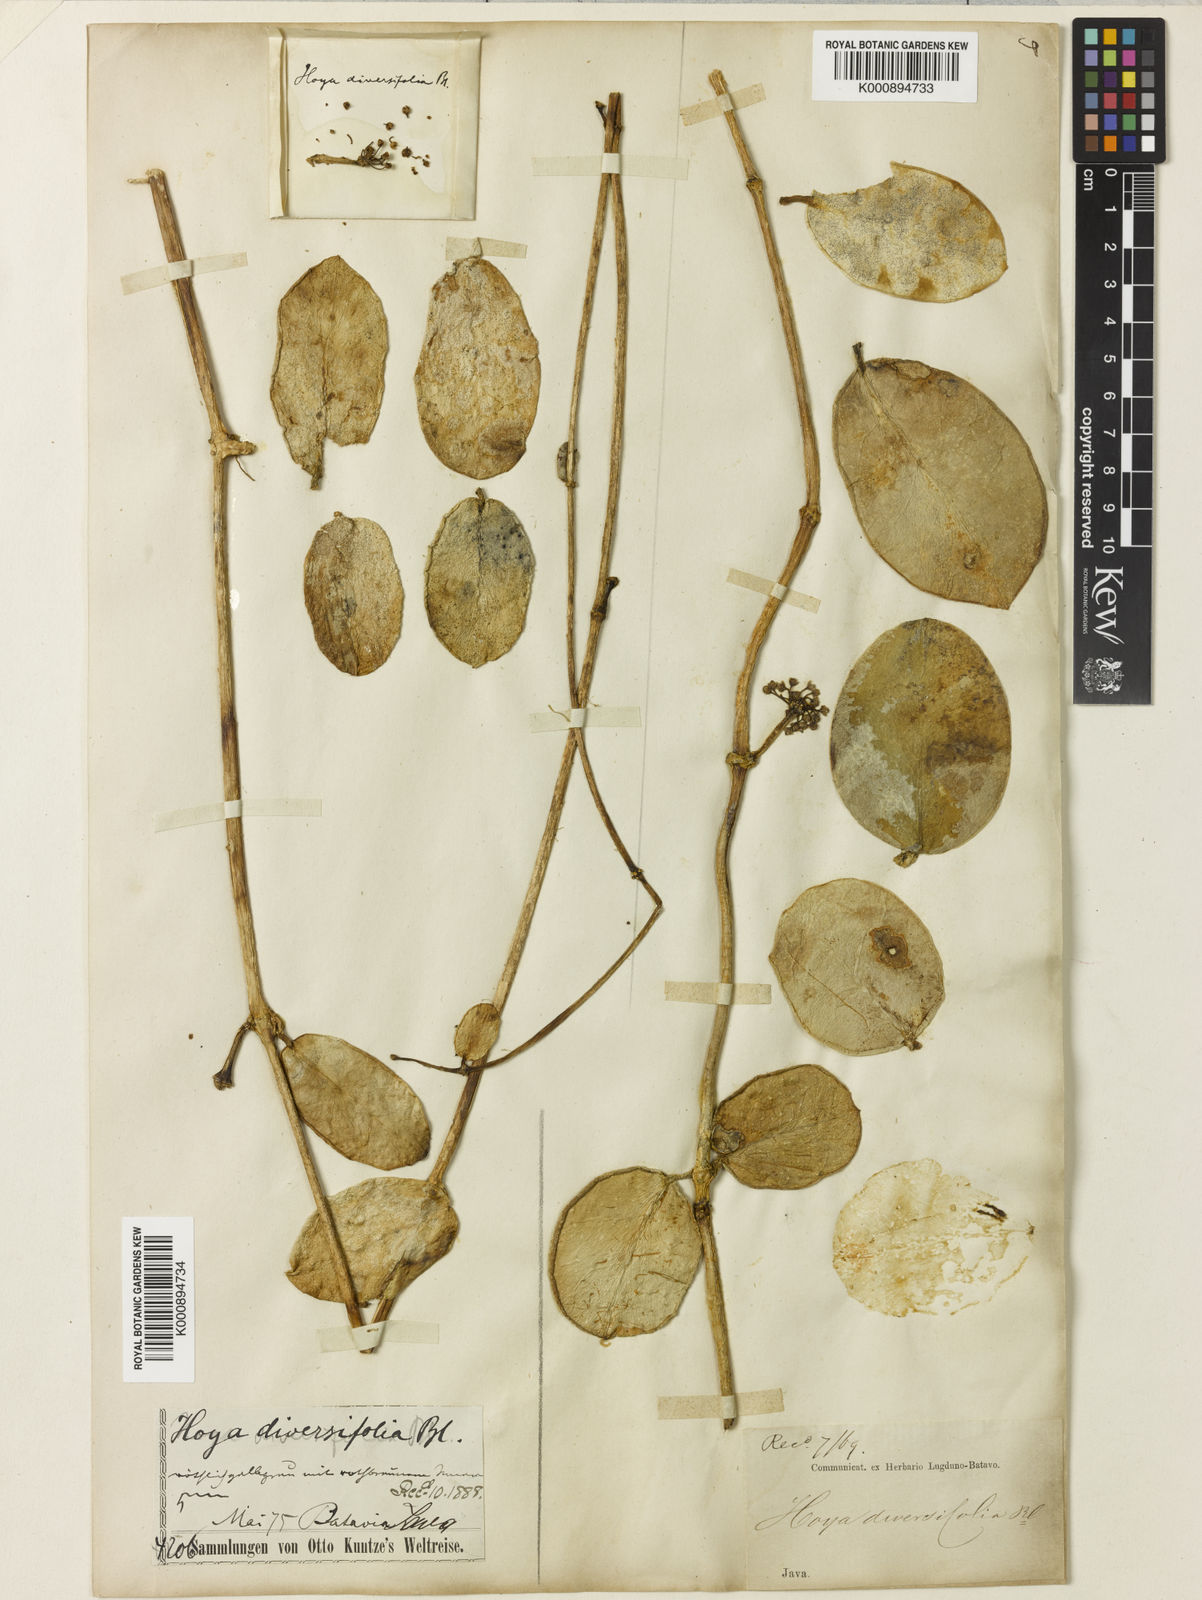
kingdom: Plantae
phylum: Tracheophyta
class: Magnoliopsida
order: Gentianales
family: Apocynaceae
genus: Hoya
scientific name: Hoya diversifolia
